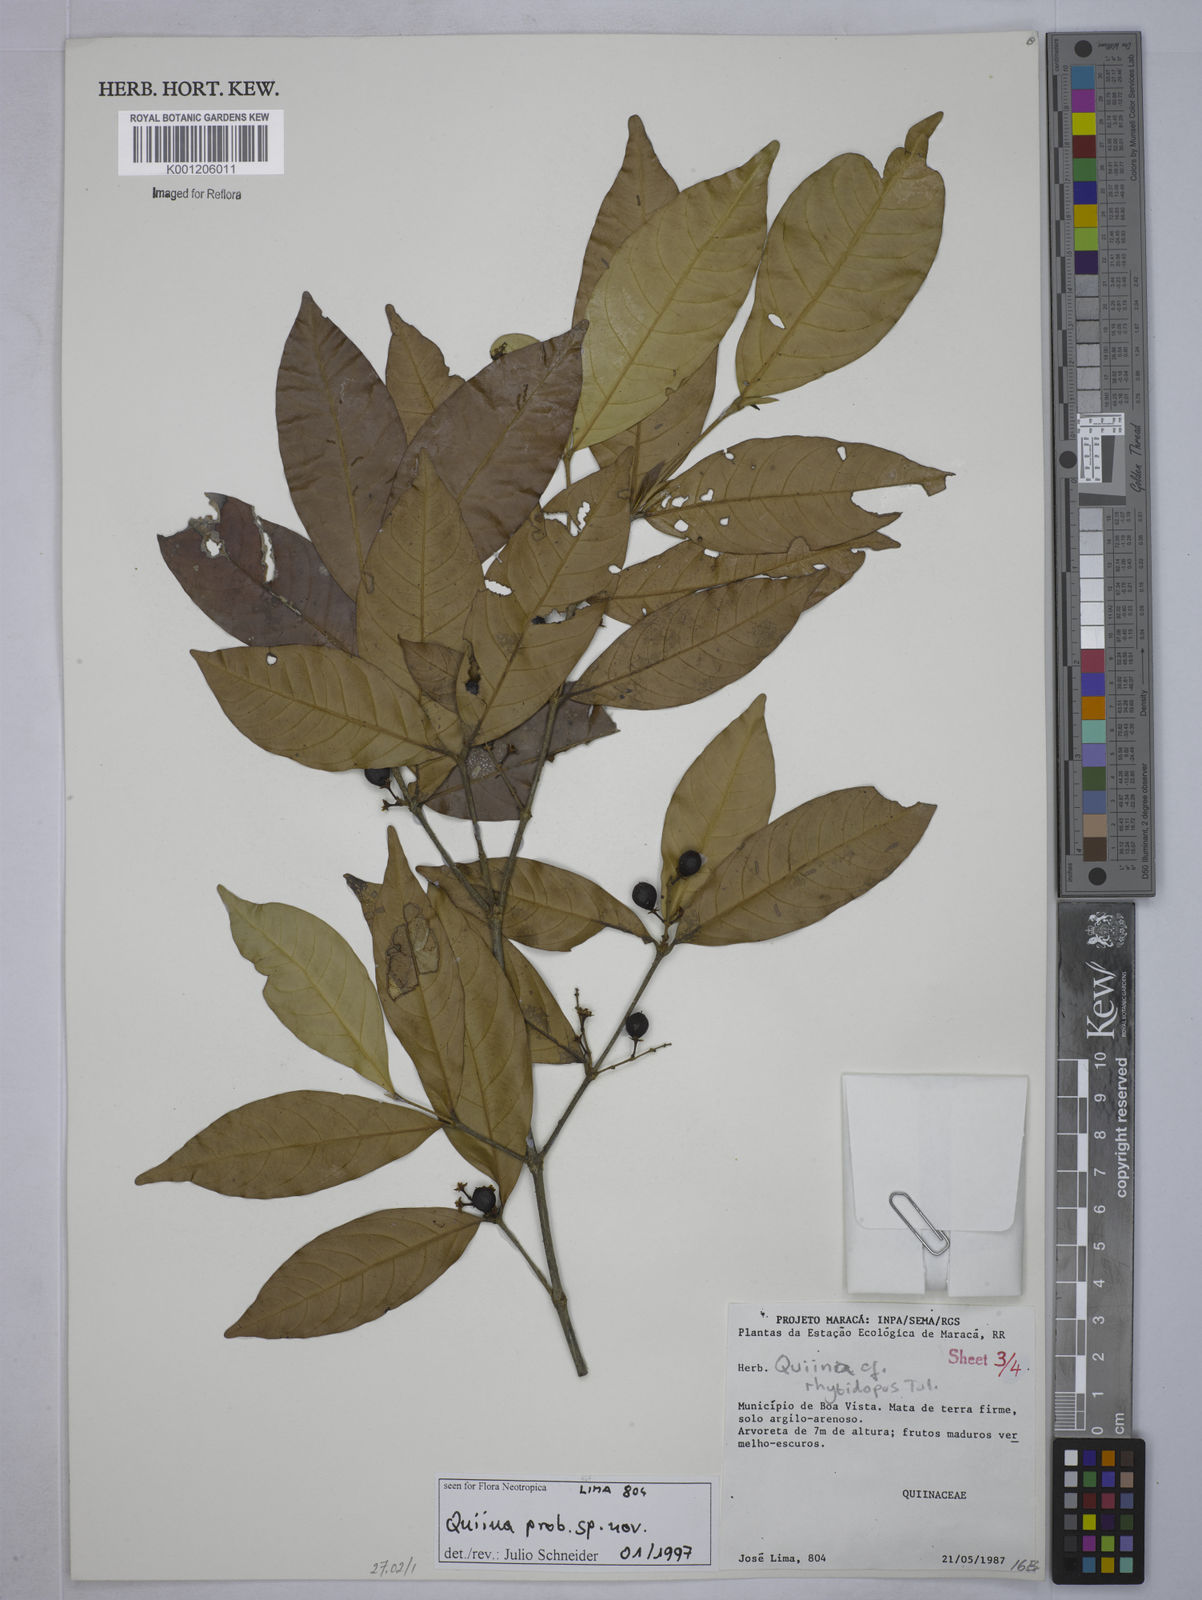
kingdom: Plantae
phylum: Tracheophyta
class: Magnoliopsida
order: Malpighiales
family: Quiinaceae
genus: Quiina
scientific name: Quiina
